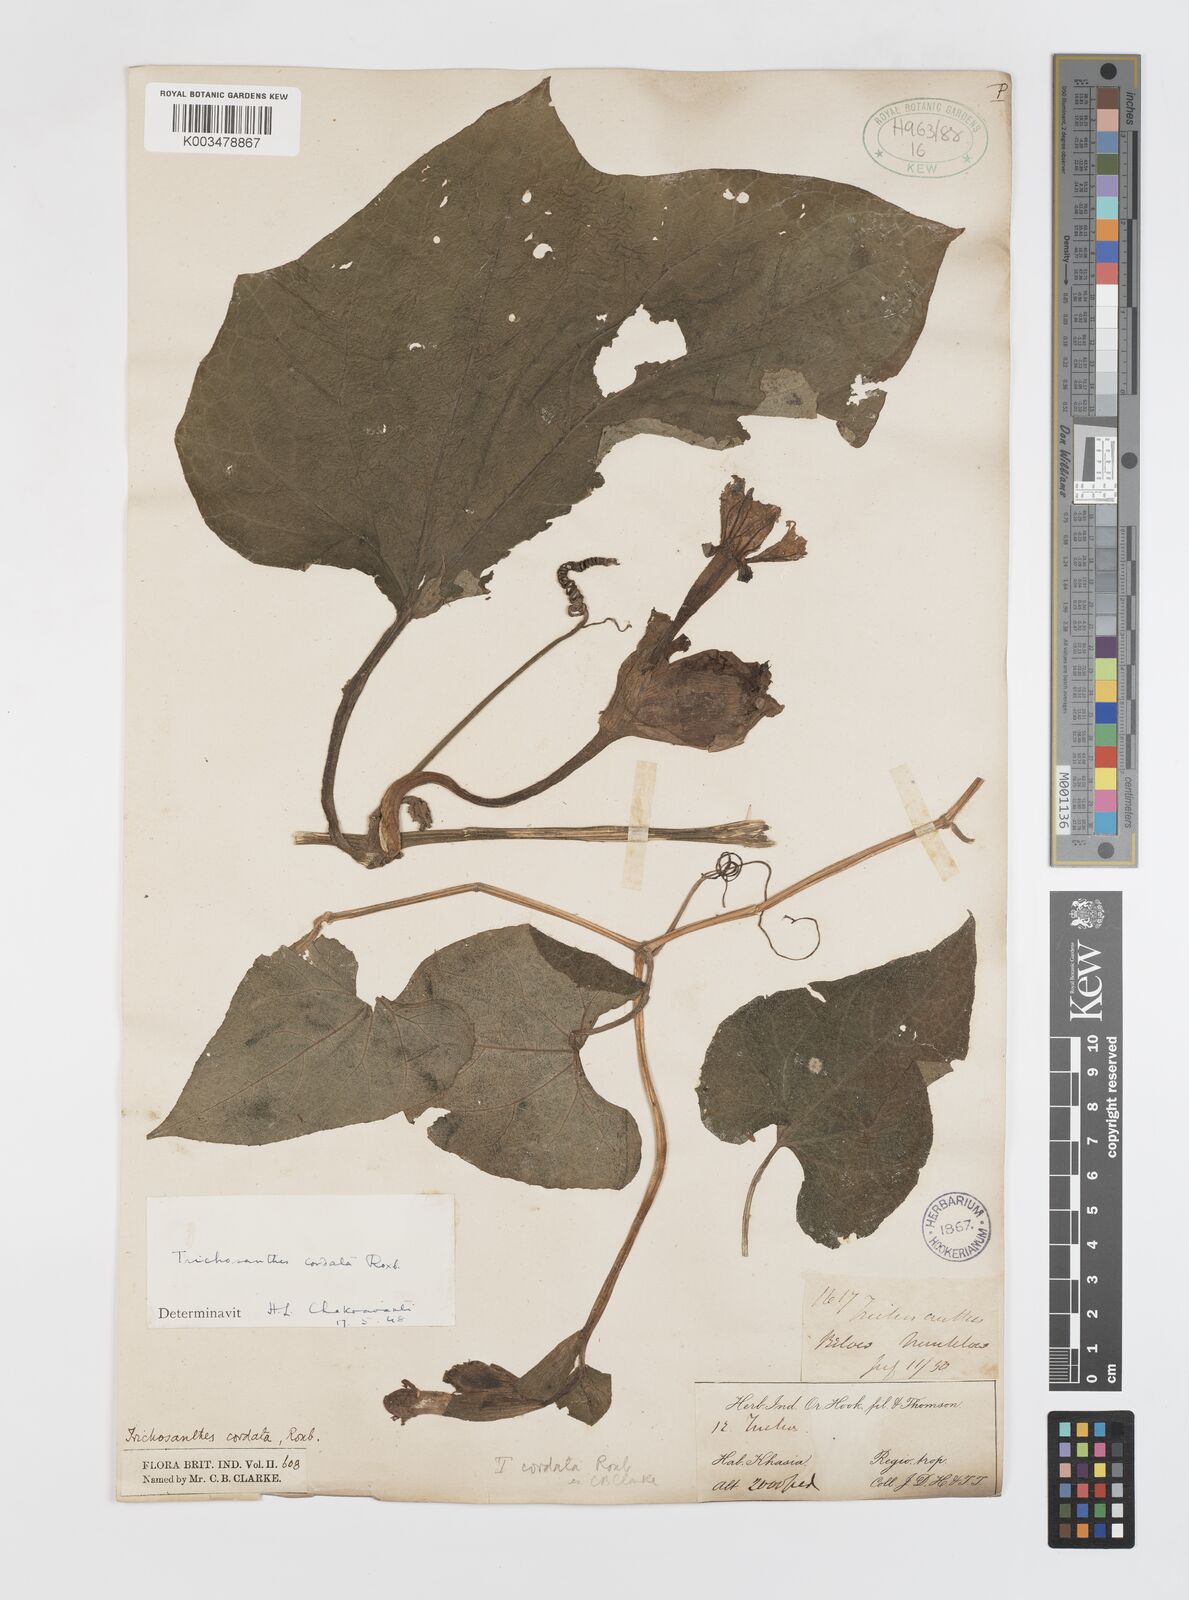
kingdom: Plantae
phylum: Tracheophyta
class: Magnoliopsida
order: Cucurbitales
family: Cucurbitaceae
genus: Trichosanthes
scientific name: Trichosanthes cordata
